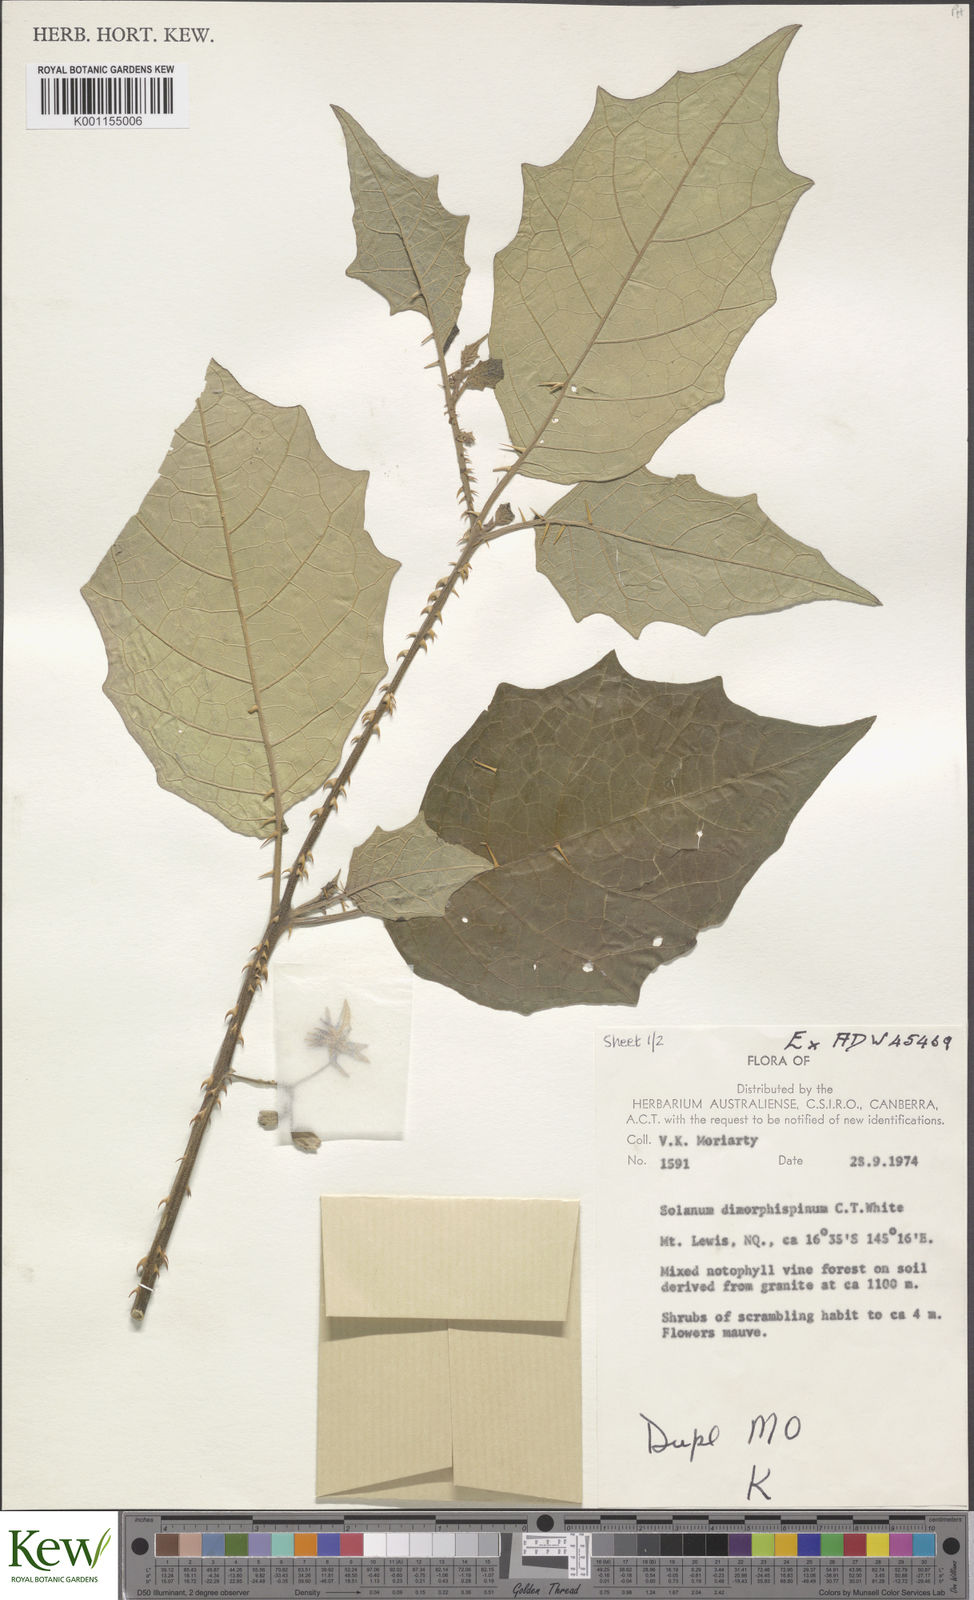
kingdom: Plantae
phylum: Tracheophyta
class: Magnoliopsida
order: Solanales
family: Solanaceae
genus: Solanum
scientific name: Solanum dimorphispinum
